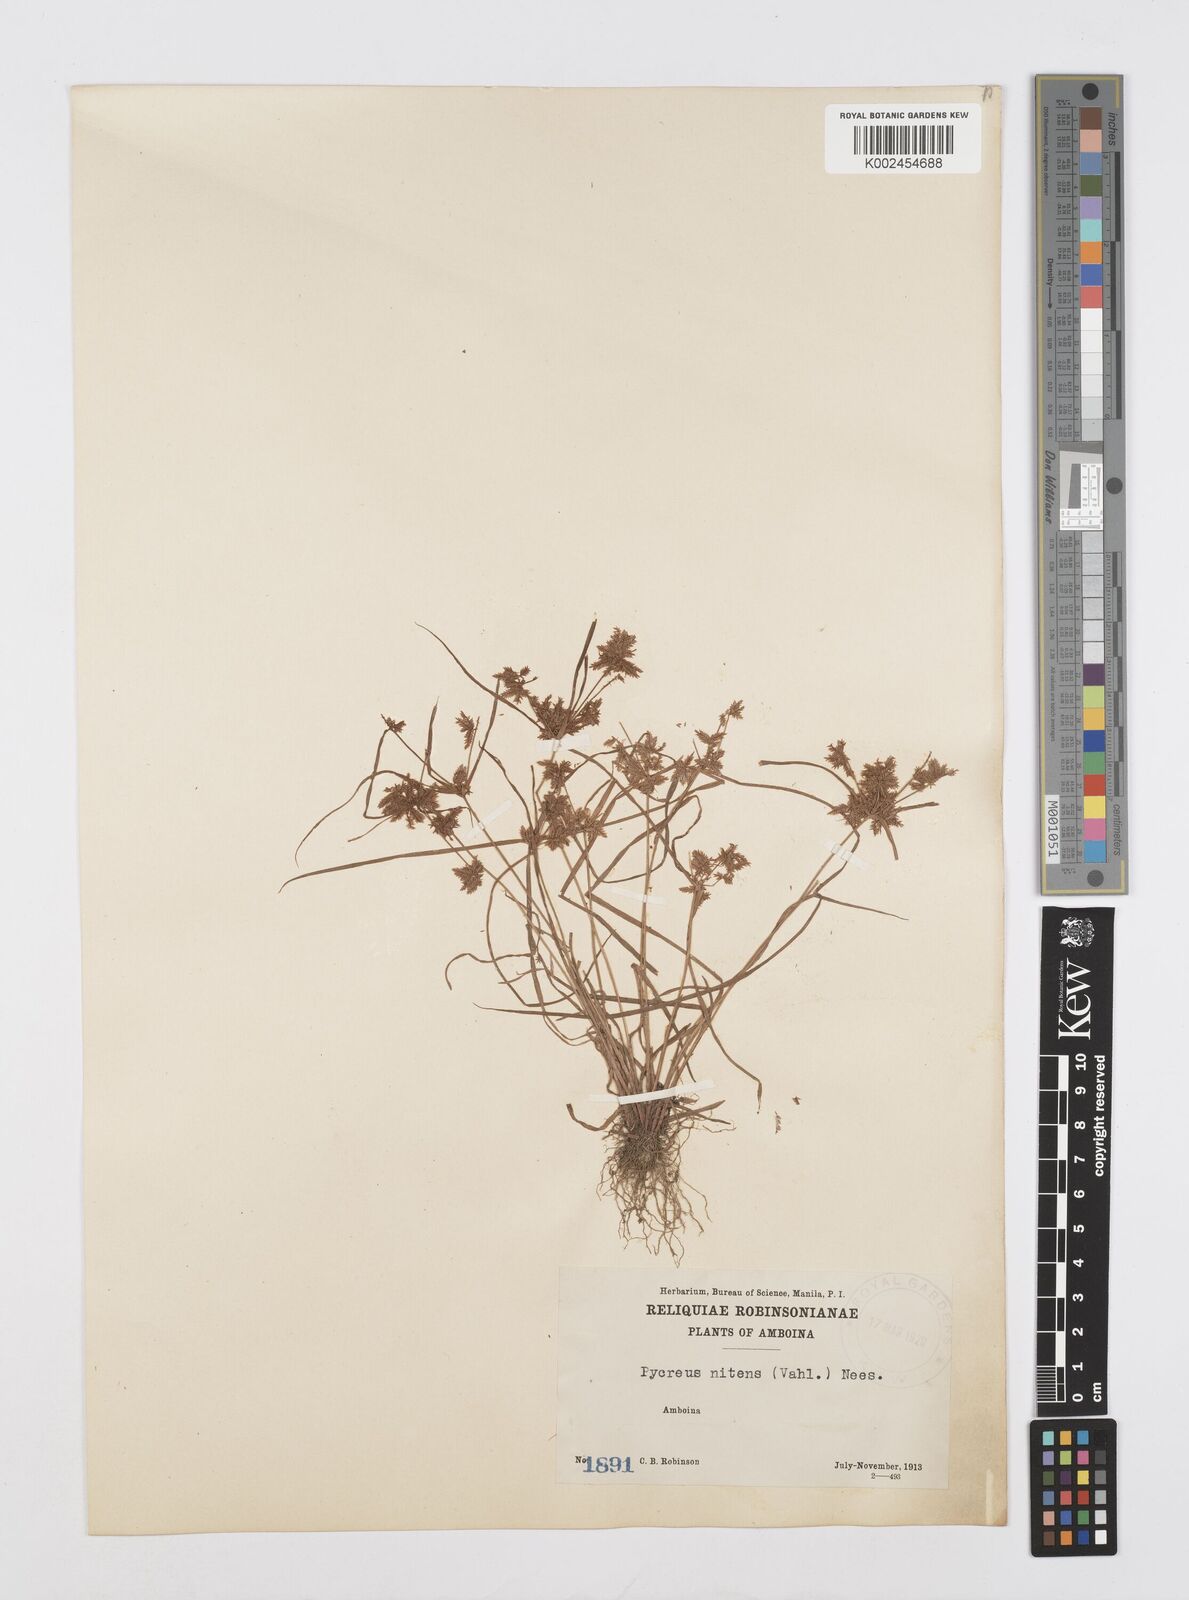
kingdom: Plantae
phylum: Tracheophyta
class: Liliopsida
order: Poales
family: Cyperaceae
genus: Cyperus
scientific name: Cyperus pumilus
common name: Low flatsedge
